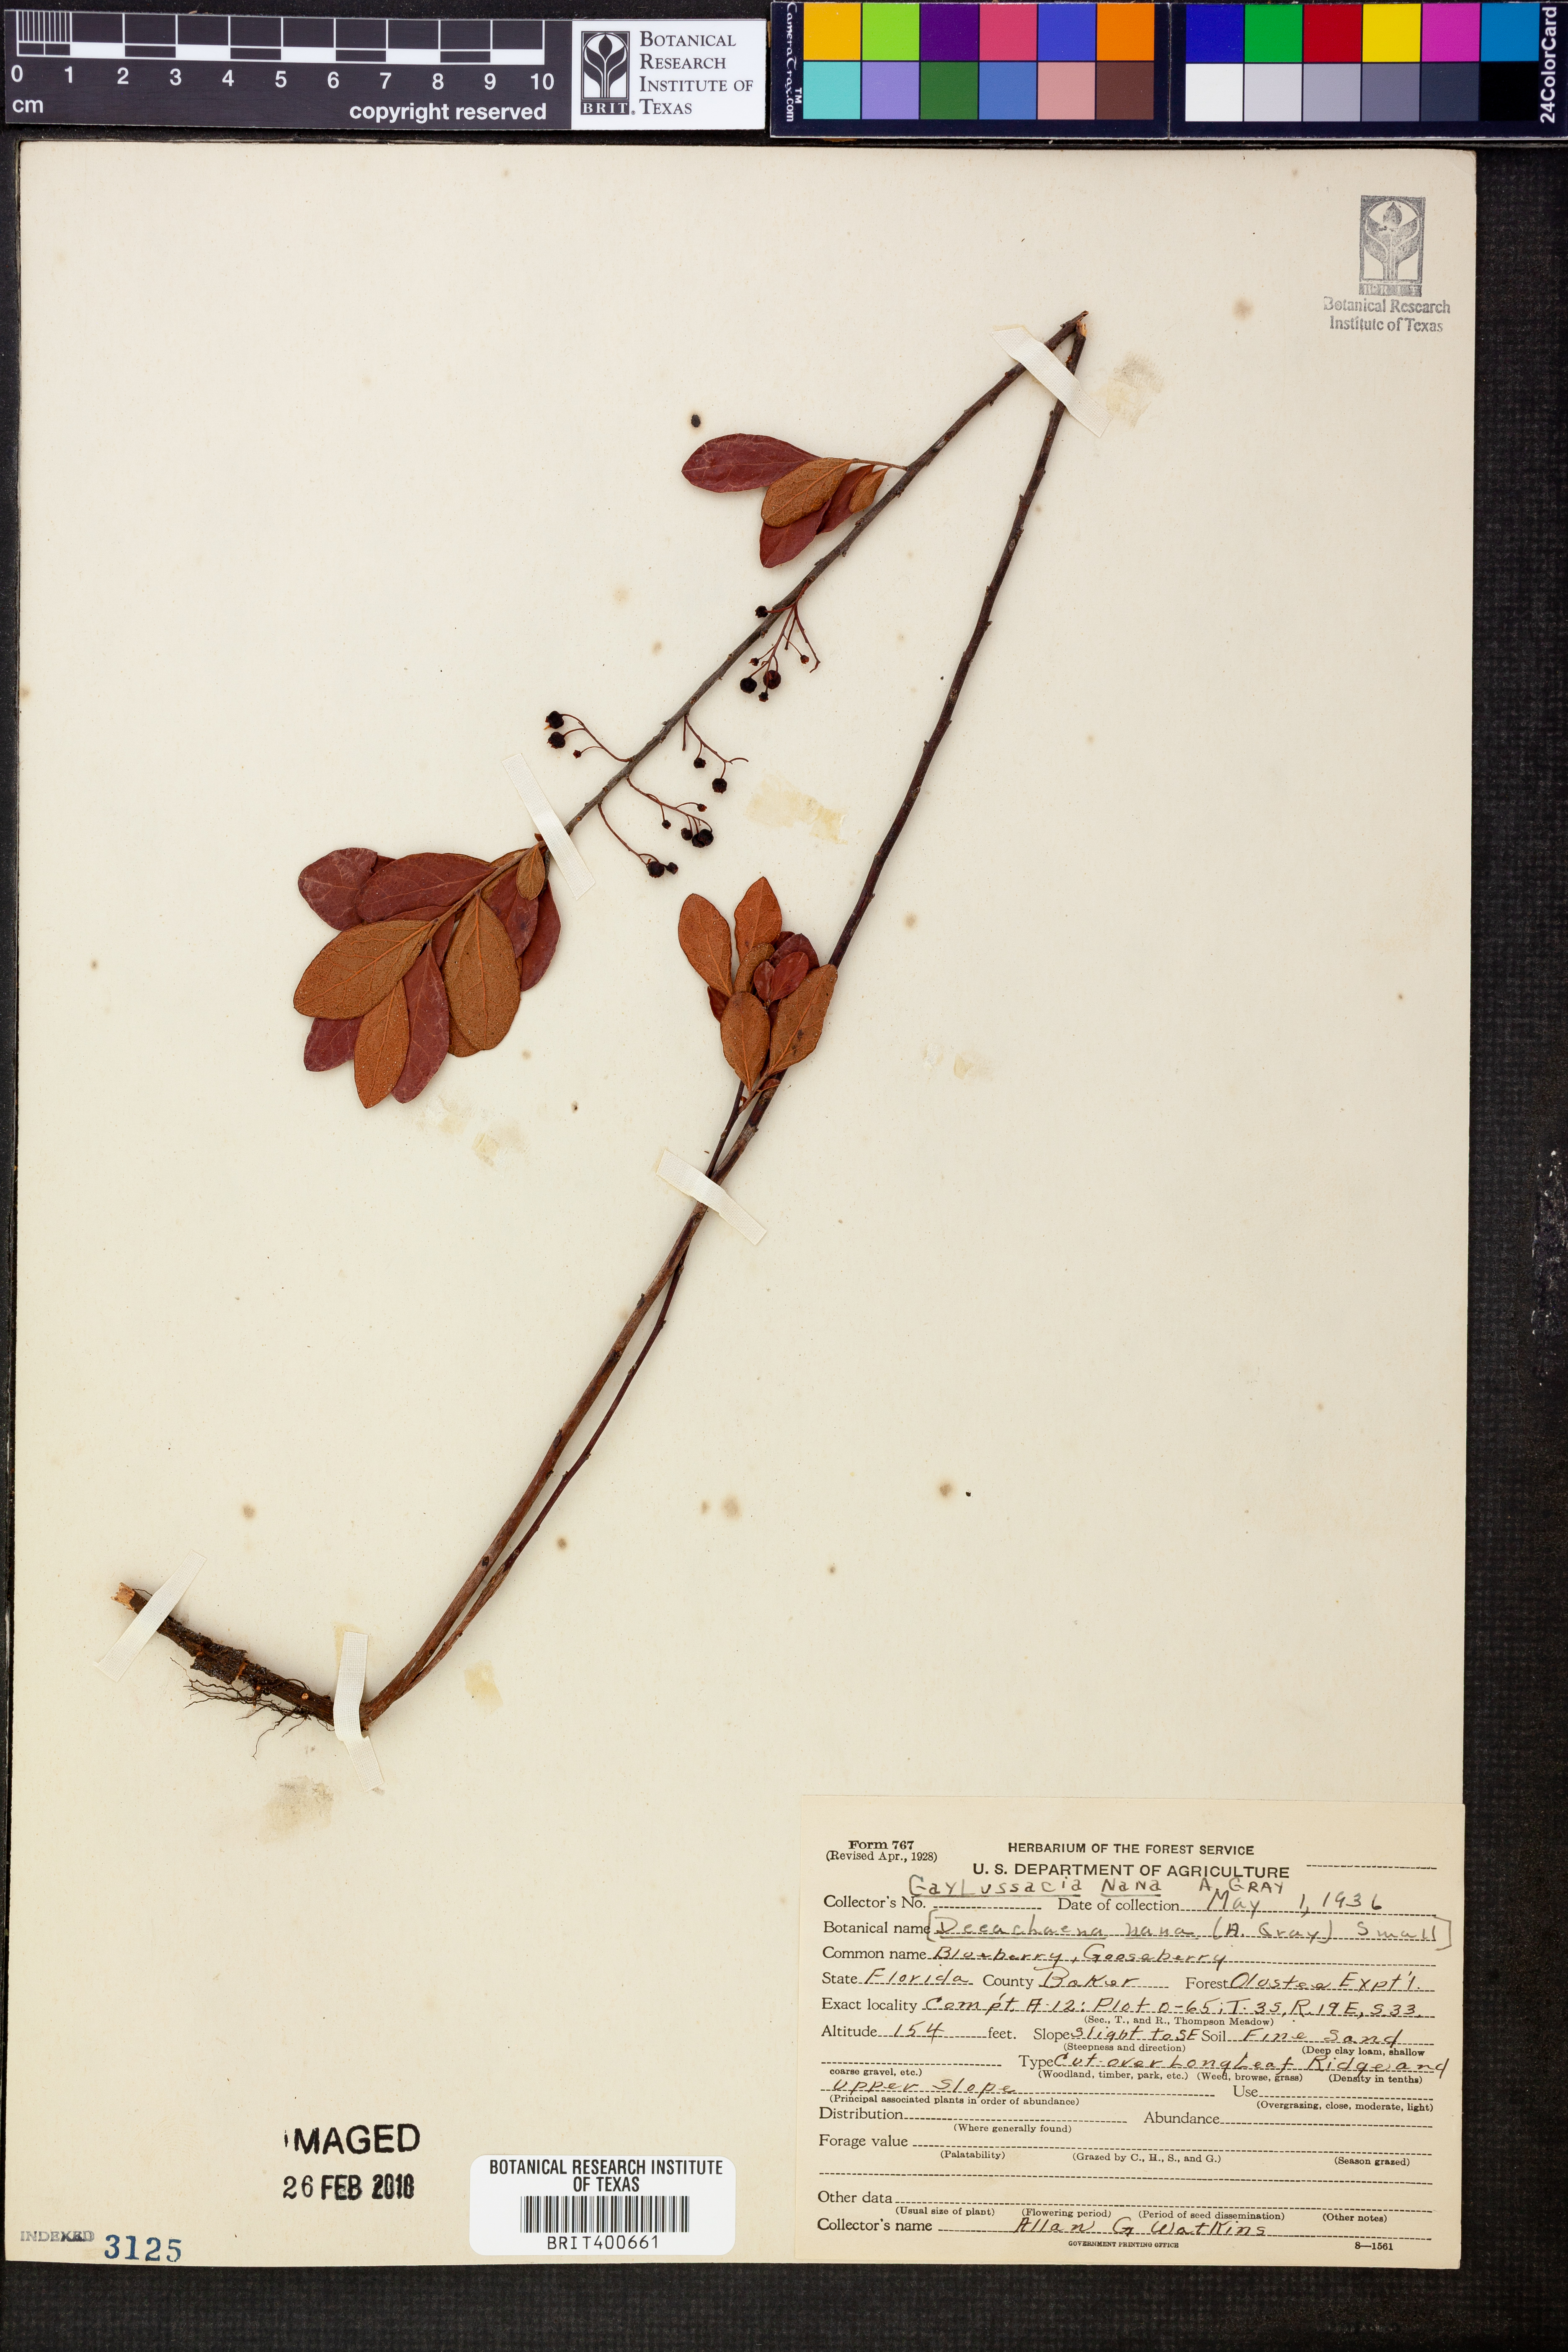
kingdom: Plantae
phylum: Tracheophyta
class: Magnoliopsida
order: Ericales
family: Ericaceae
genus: Gaylussacia
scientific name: Gaylussacia nana
